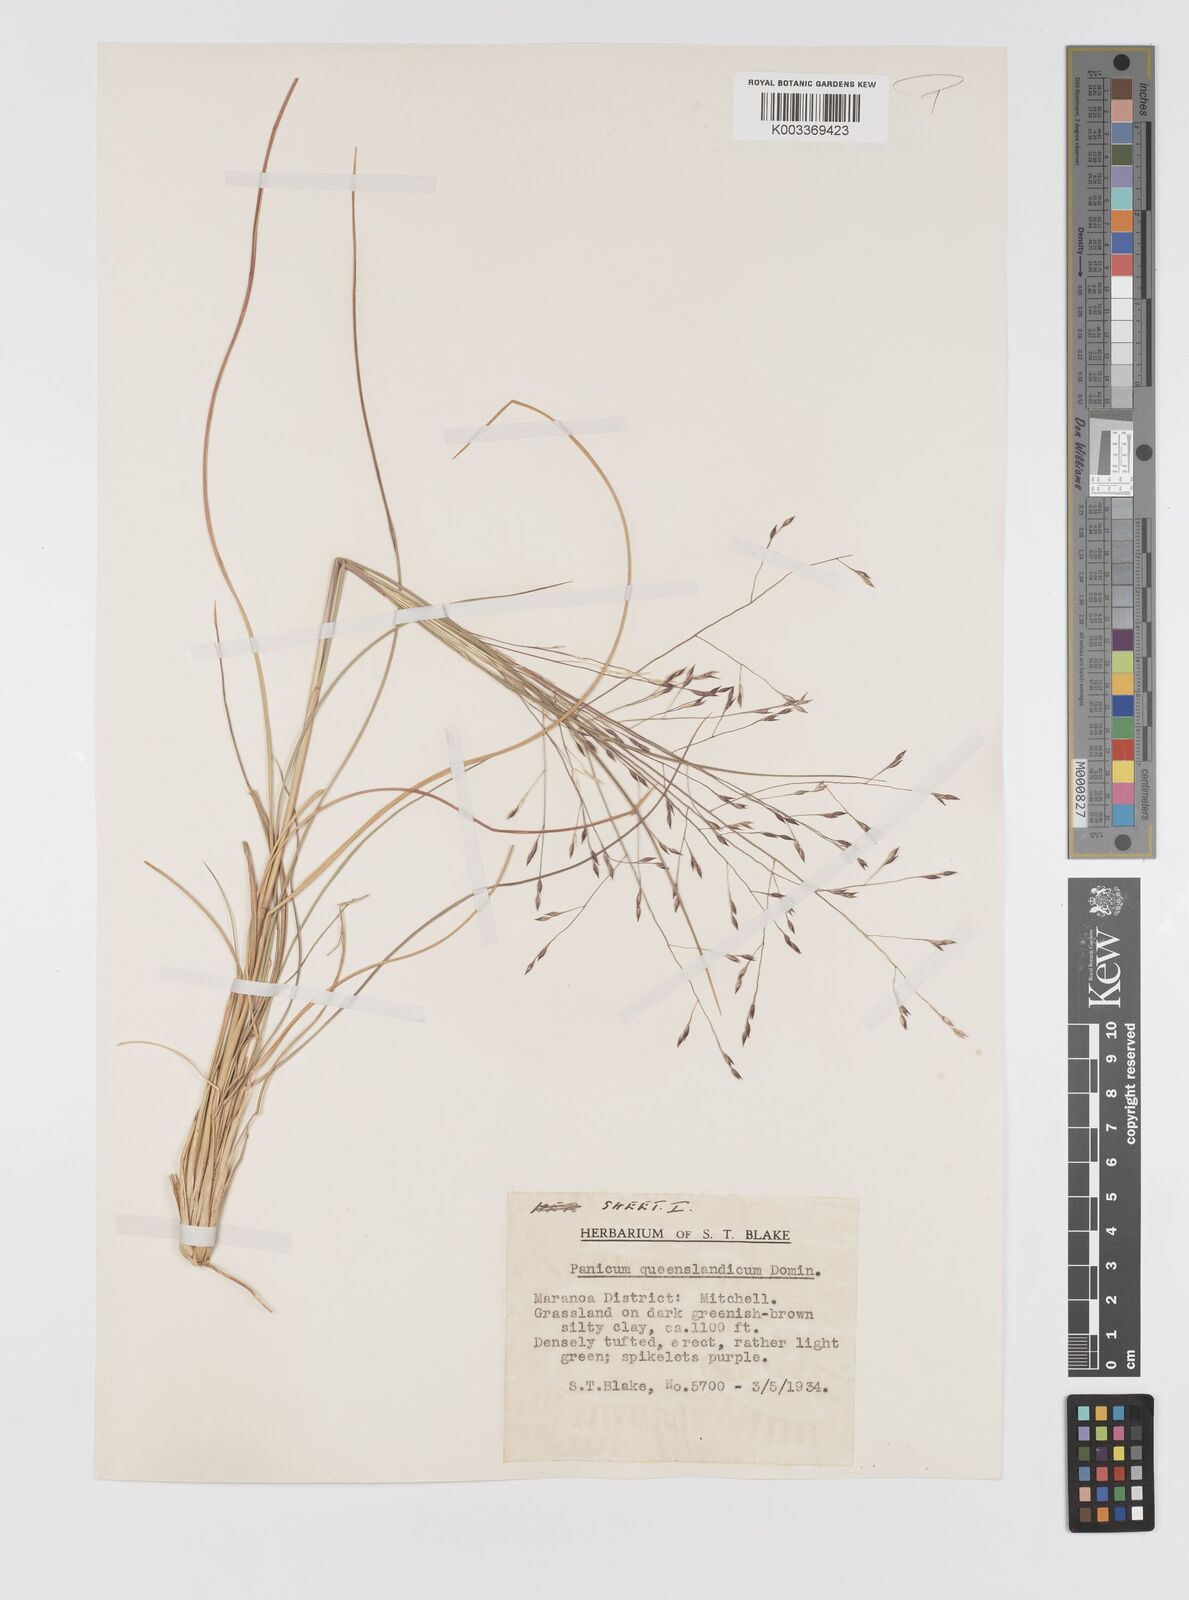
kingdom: Plantae
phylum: Tracheophyta
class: Liliopsida
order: Poales
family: Poaceae
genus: Panicum
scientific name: Panicum queenslandicum
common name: Yabila grass
